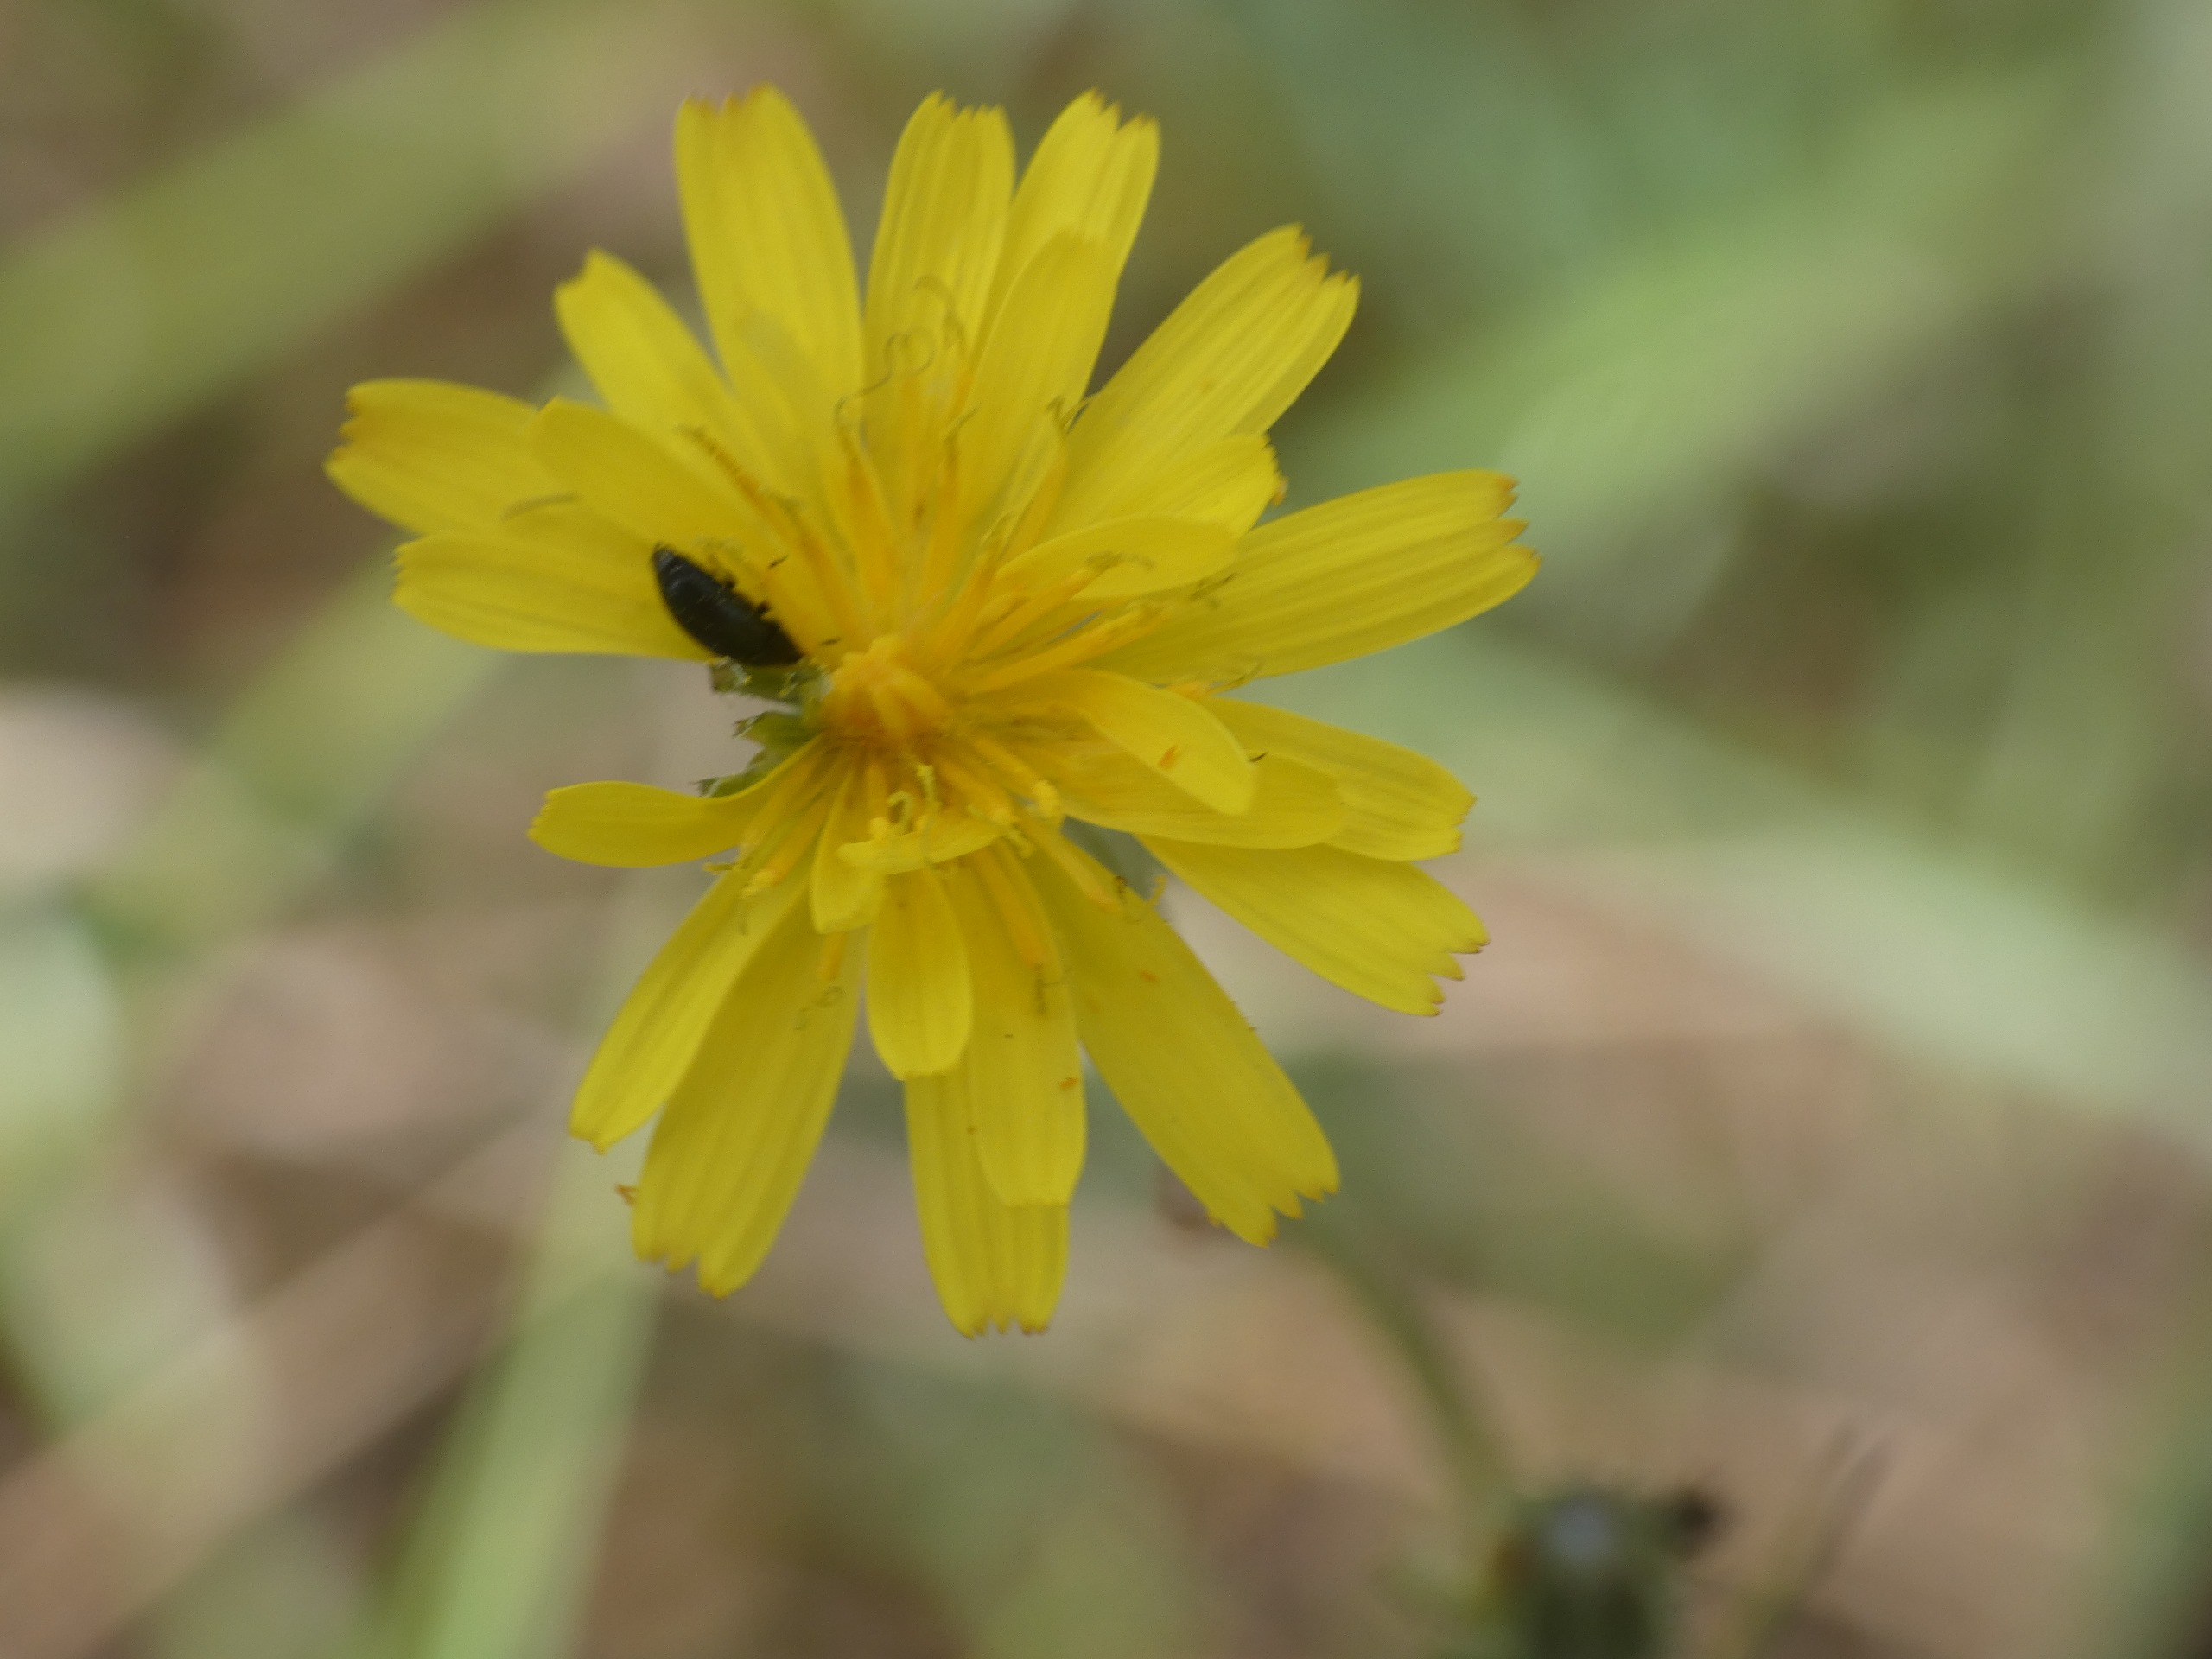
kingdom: Plantae
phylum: Tracheophyta
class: Magnoliopsida
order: Asterales
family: Asteraceae
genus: Crepis
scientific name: Crepis capillaris
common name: Grøn høgeskæg
